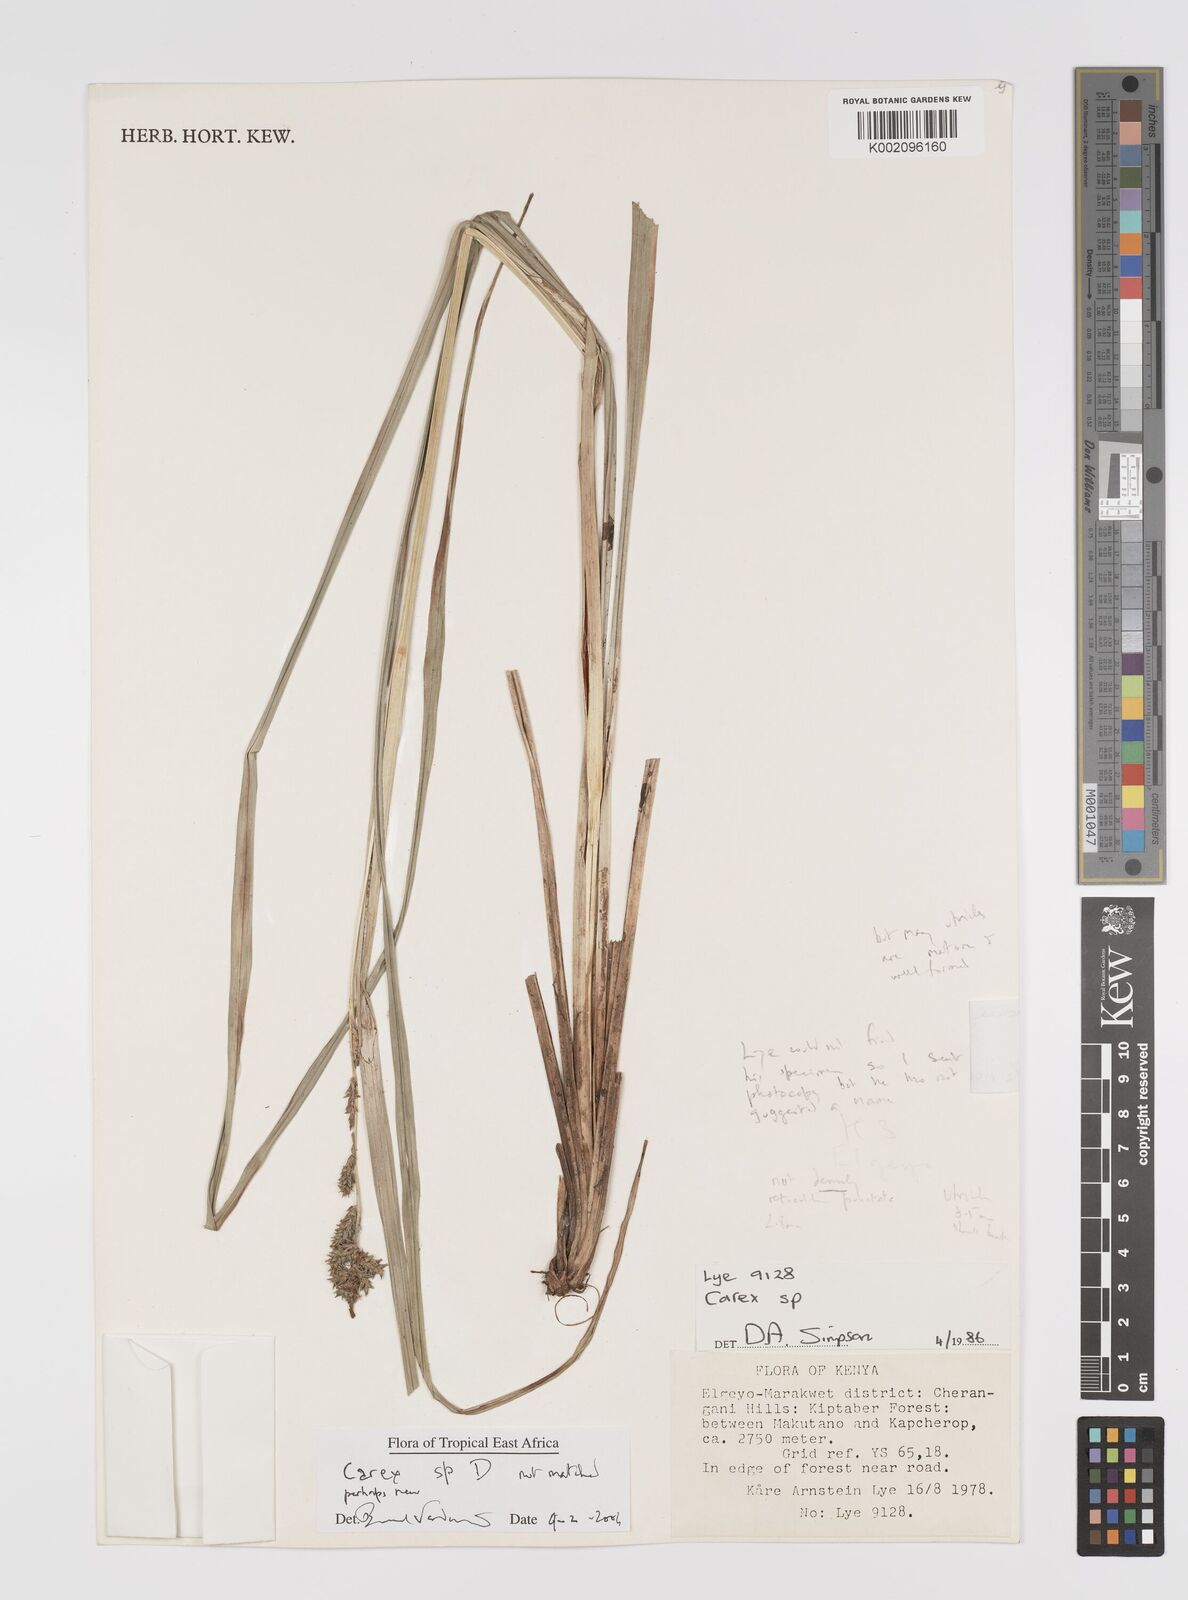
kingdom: Plantae
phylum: Tracheophyta
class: Liliopsida
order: Poales
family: Cyperaceae
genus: Carex
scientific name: Carex
